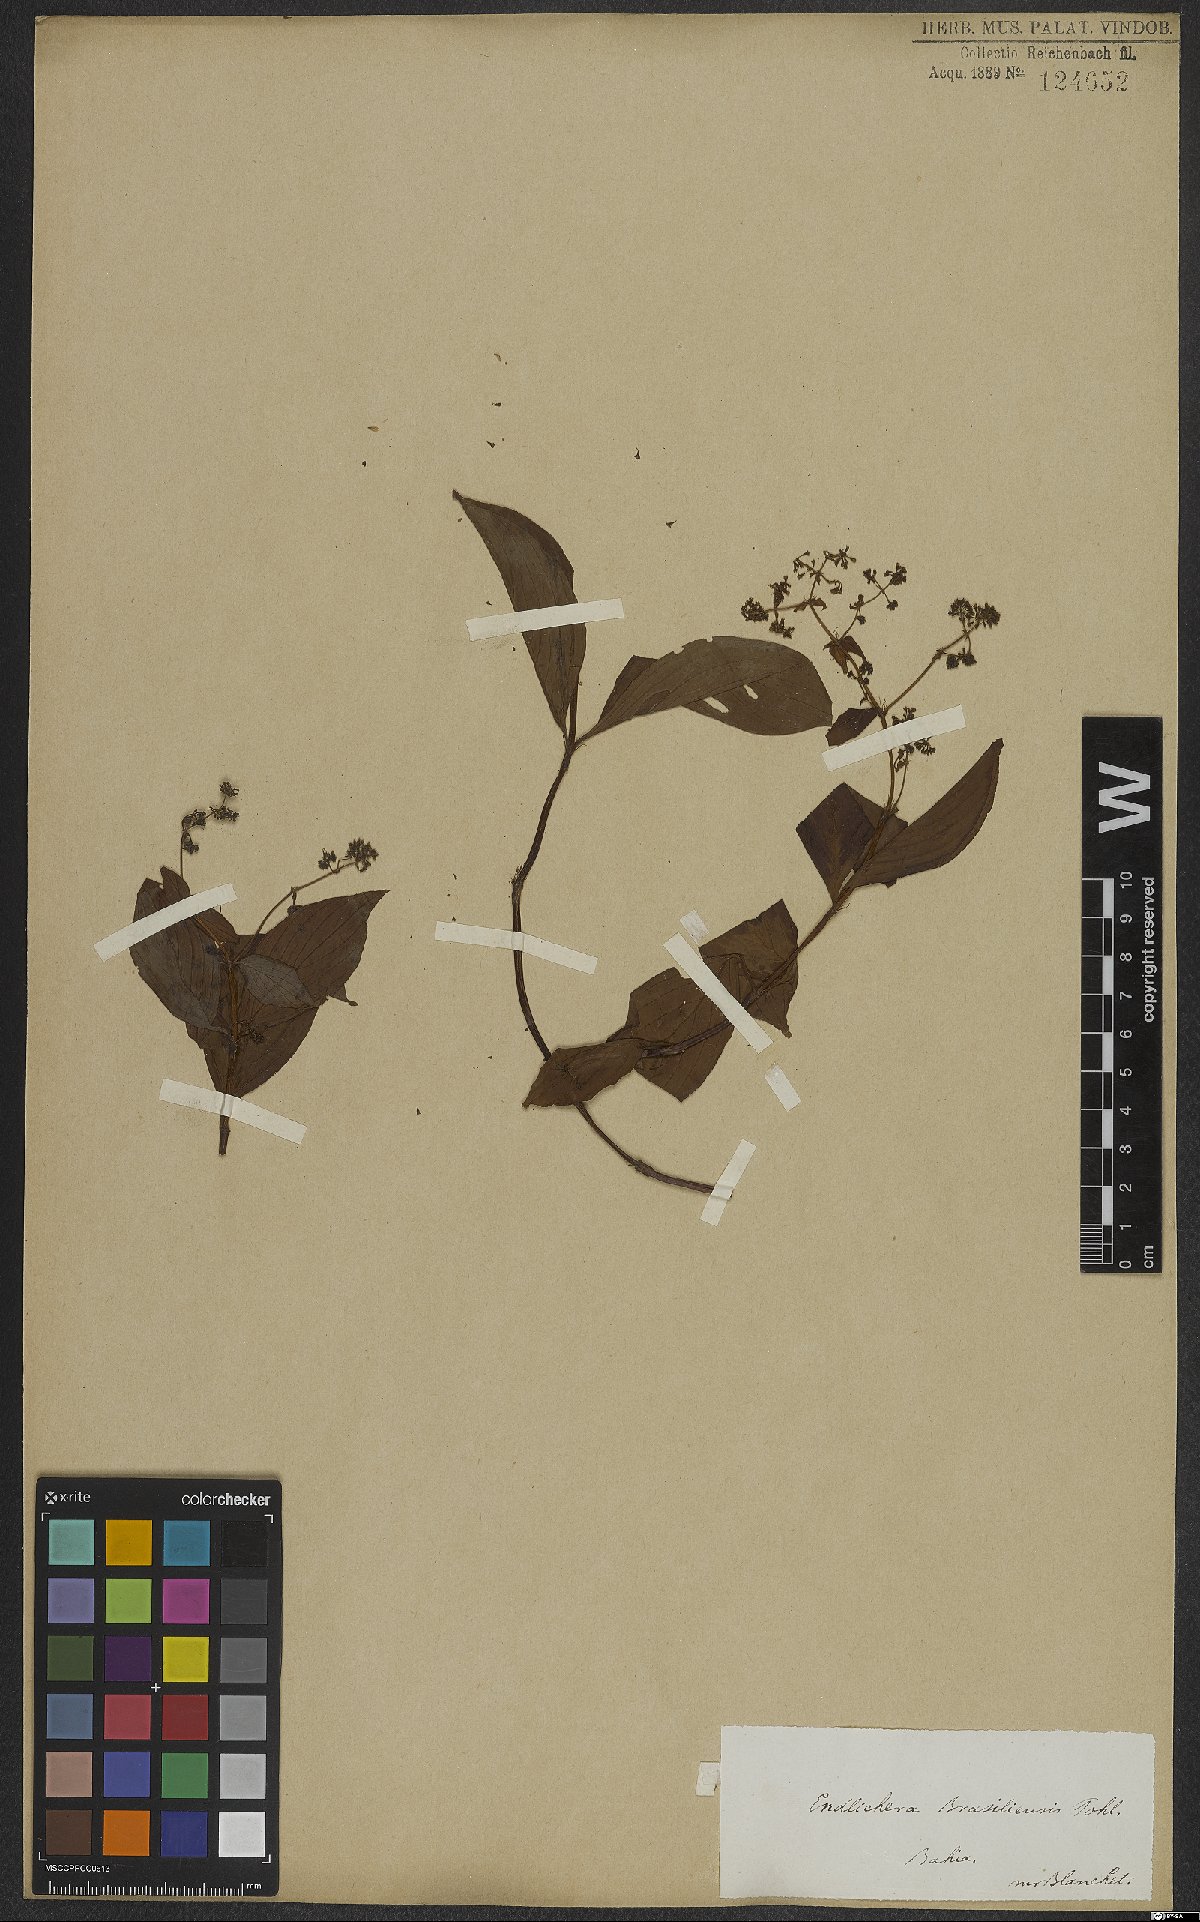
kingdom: Plantae
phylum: Tracheophyta
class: Magnoliopsida
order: Gentianales
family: Rubiaceae
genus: Emmeorhiza
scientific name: Emmeorhiza umbellata
